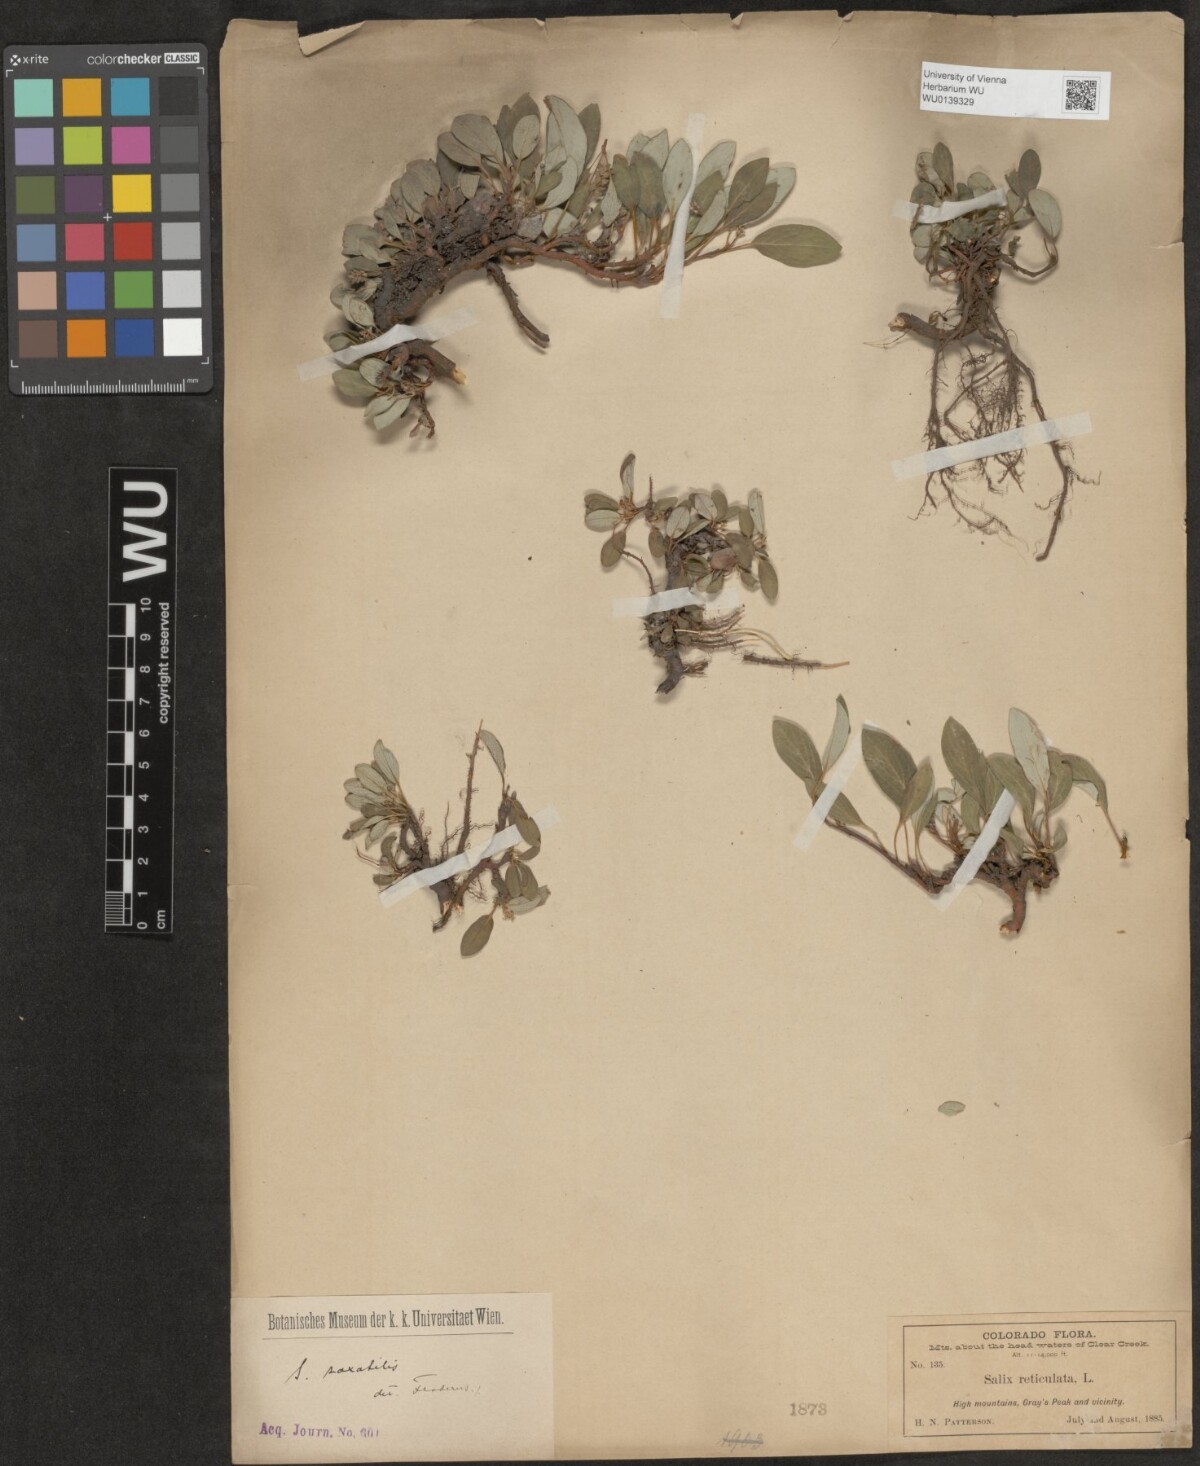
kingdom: Plantae
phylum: Tracheophyta
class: Magnoliopsida
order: Malpighiales
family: Salicaceae
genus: Salix
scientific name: Salix reticulata
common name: Net-leaved willow
